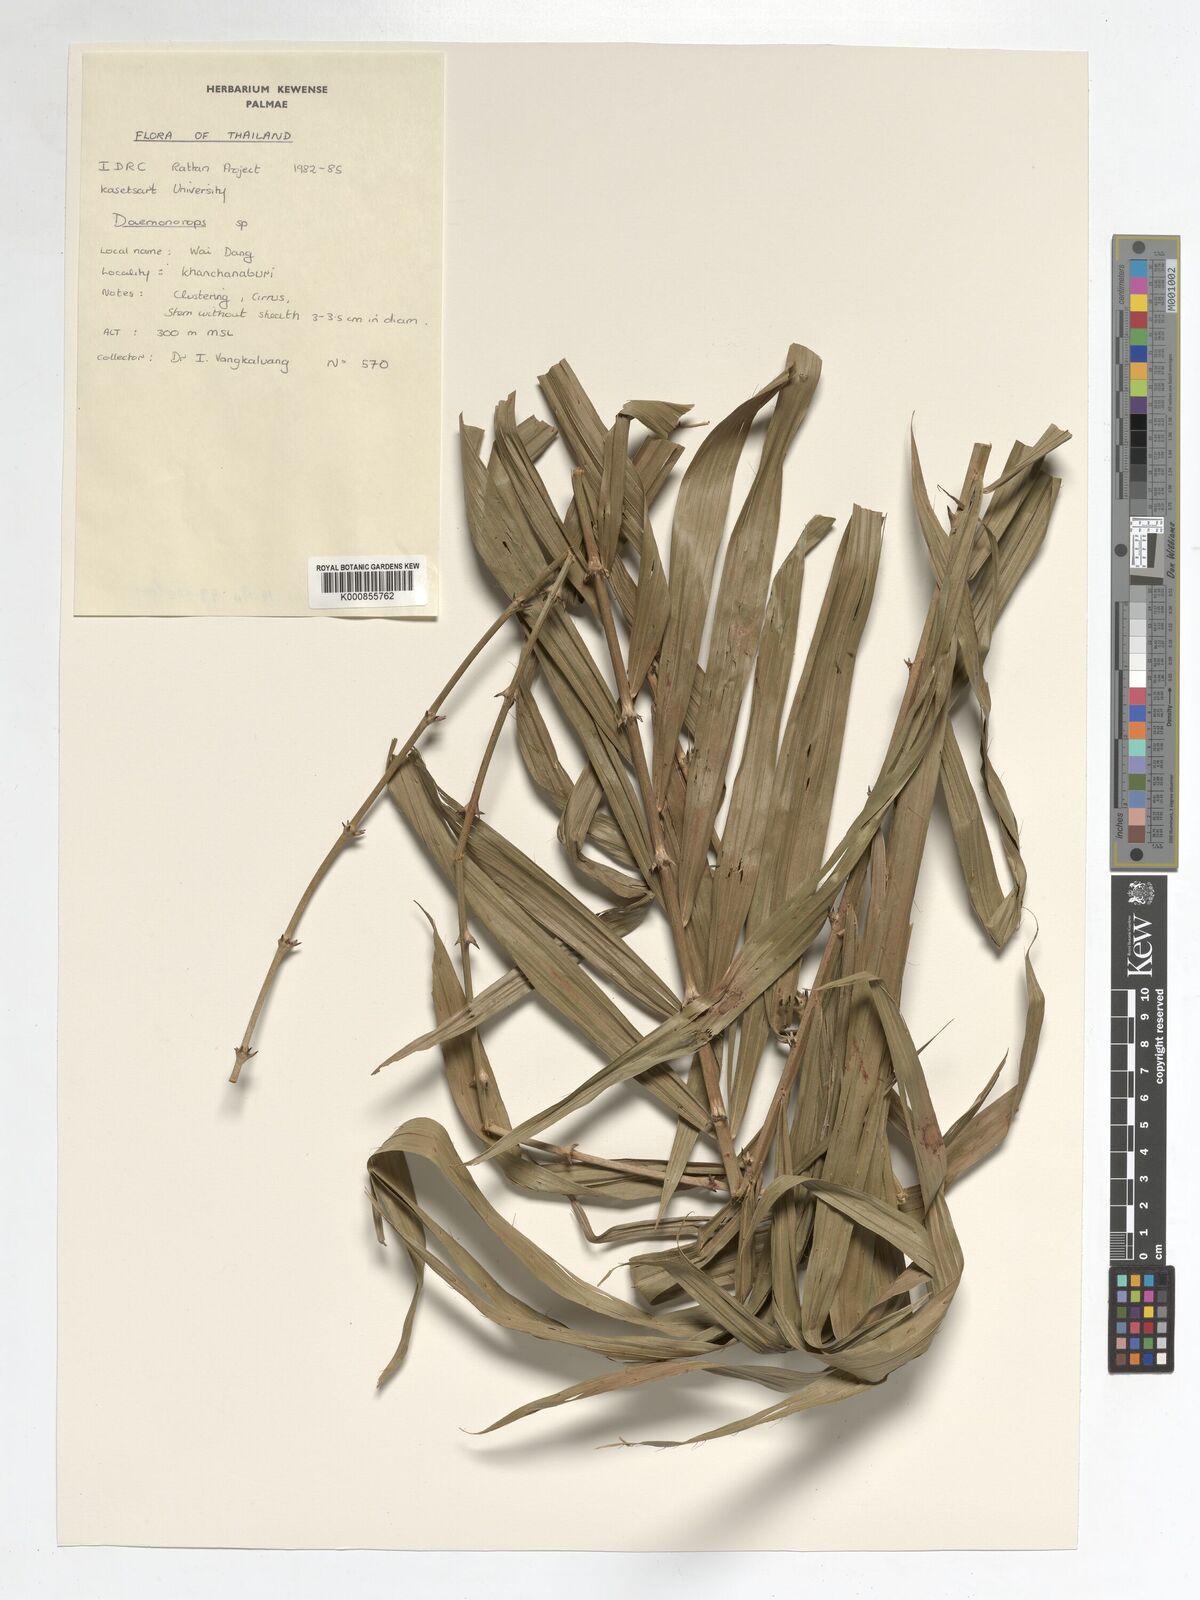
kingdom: Plantae
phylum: Tracheophyta
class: Liliopsida
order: Arecales
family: Arecaceae
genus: Daemonorops
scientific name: Daemonorops
